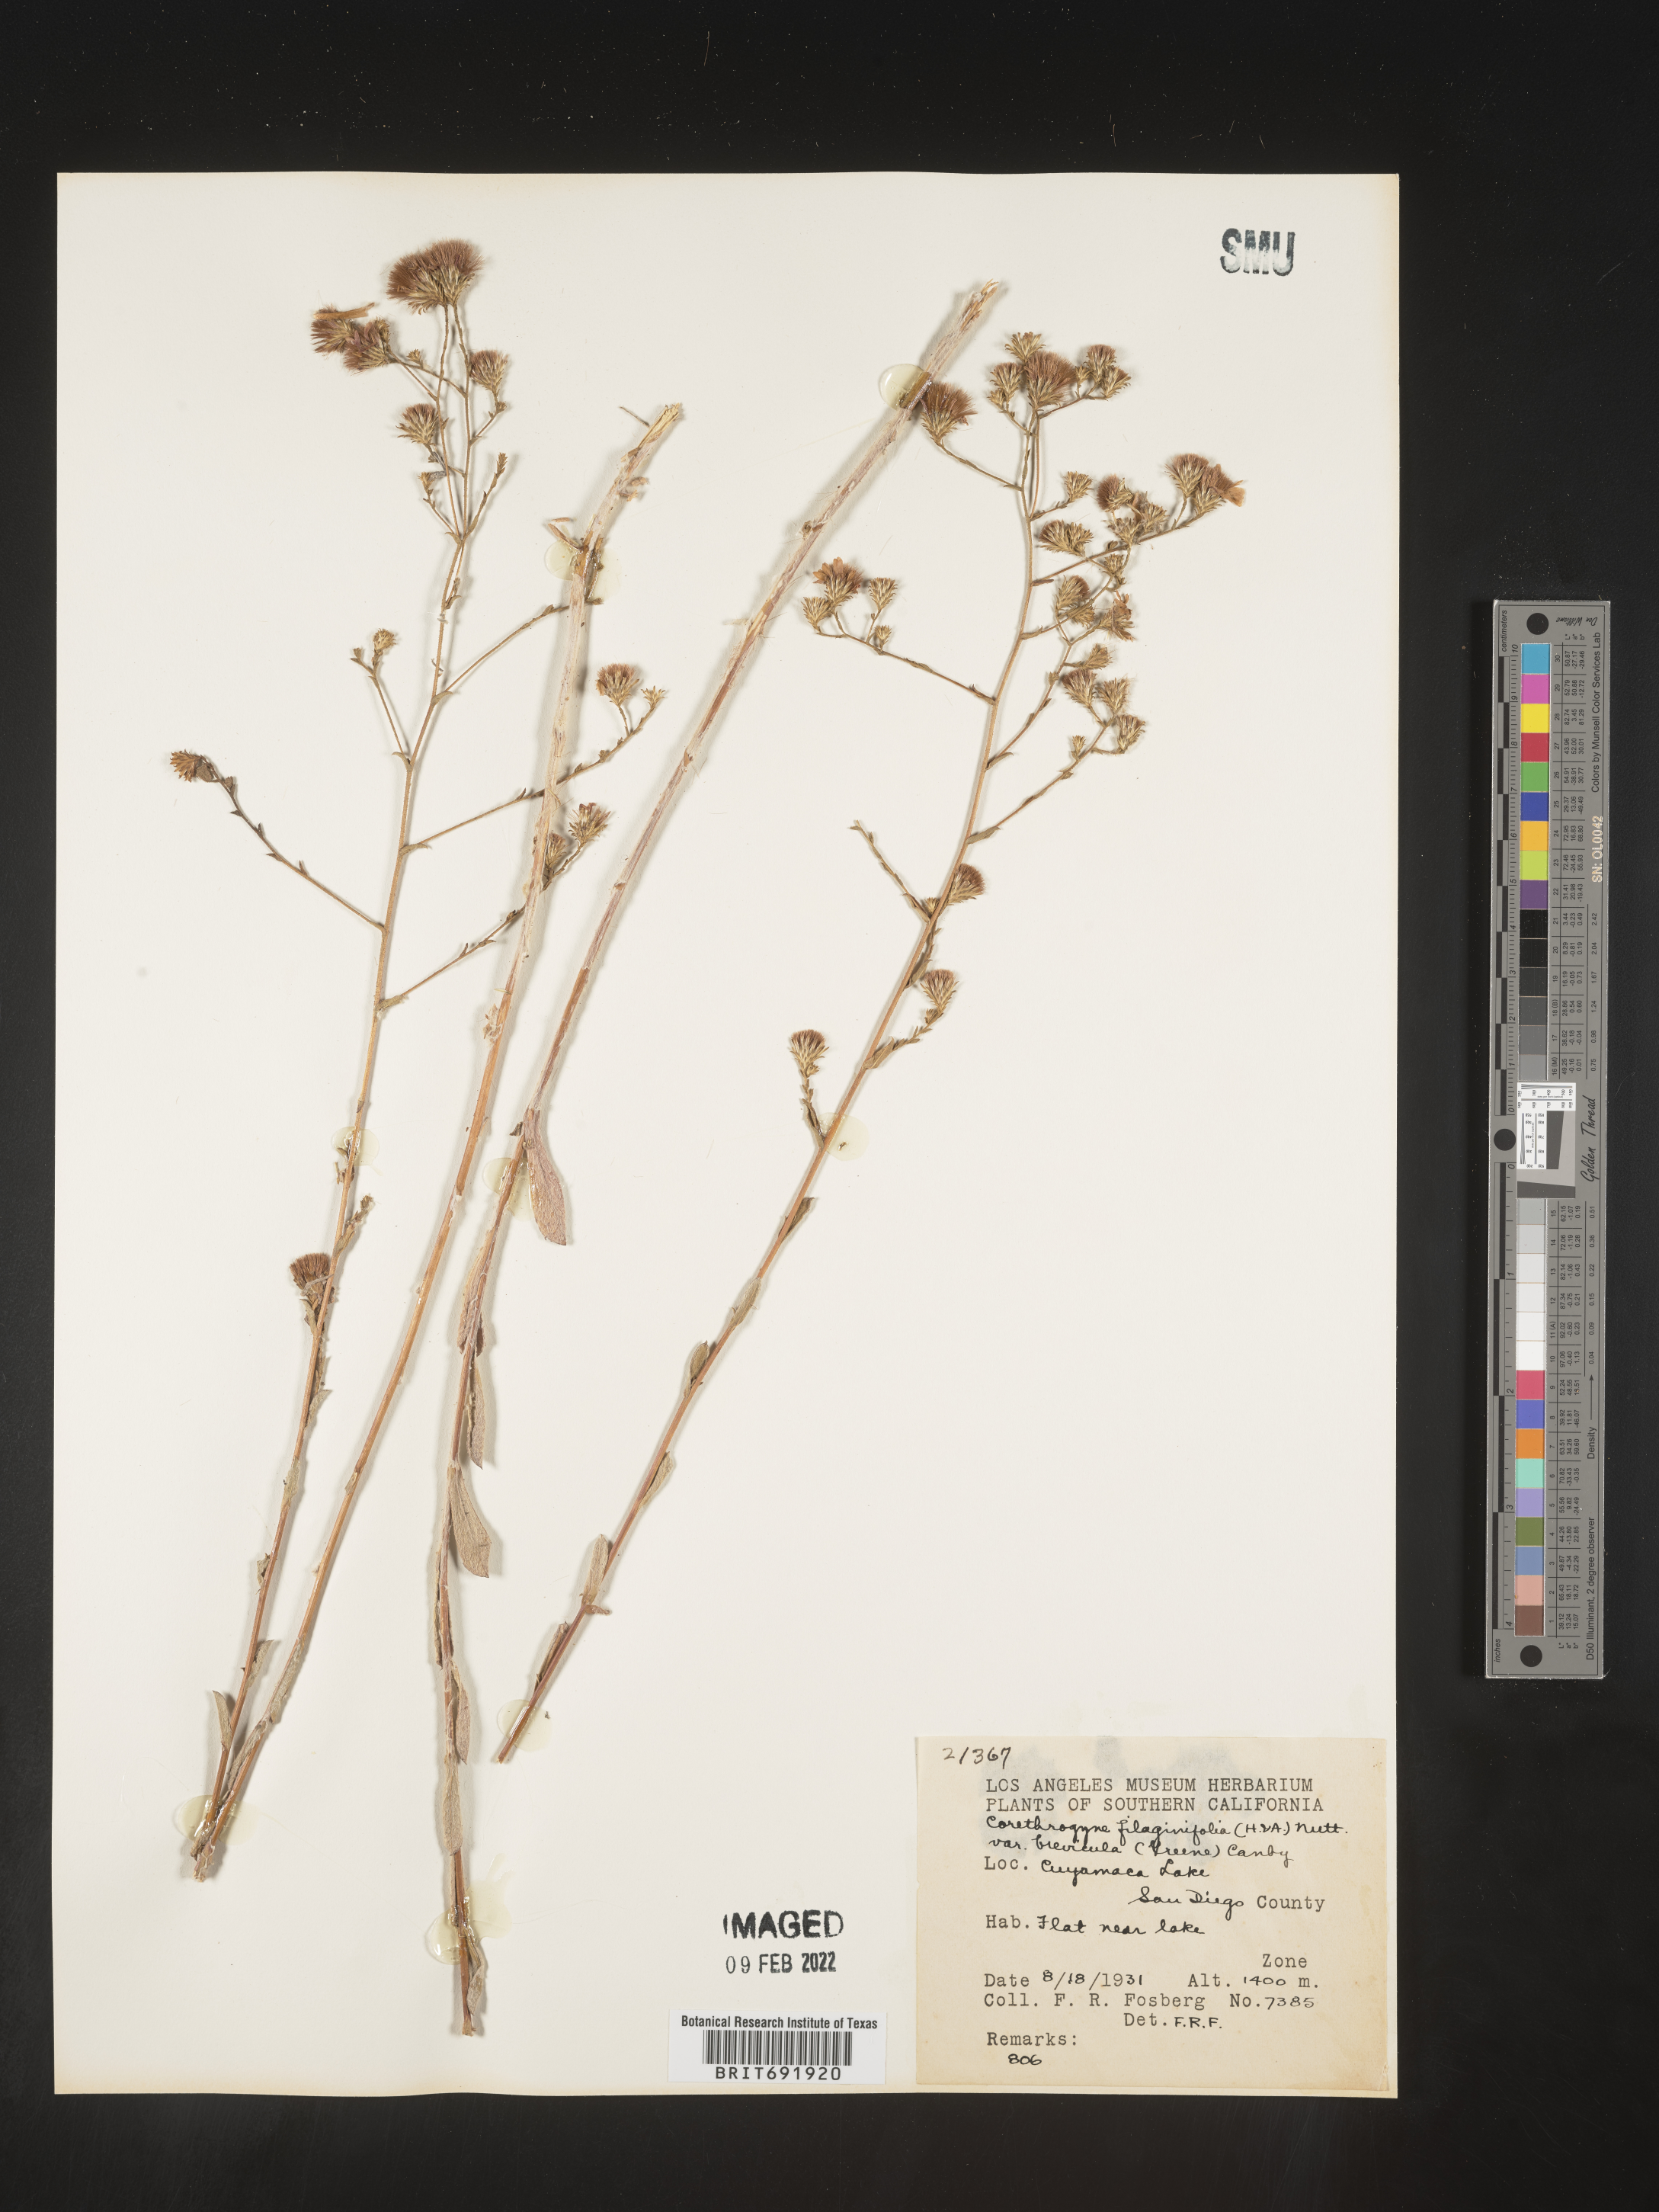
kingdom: Plantae
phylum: Tracheophyta
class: Magnoliopsida
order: Asterales
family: Asteraceae
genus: Corethrogyne
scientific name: Corethrogyne
